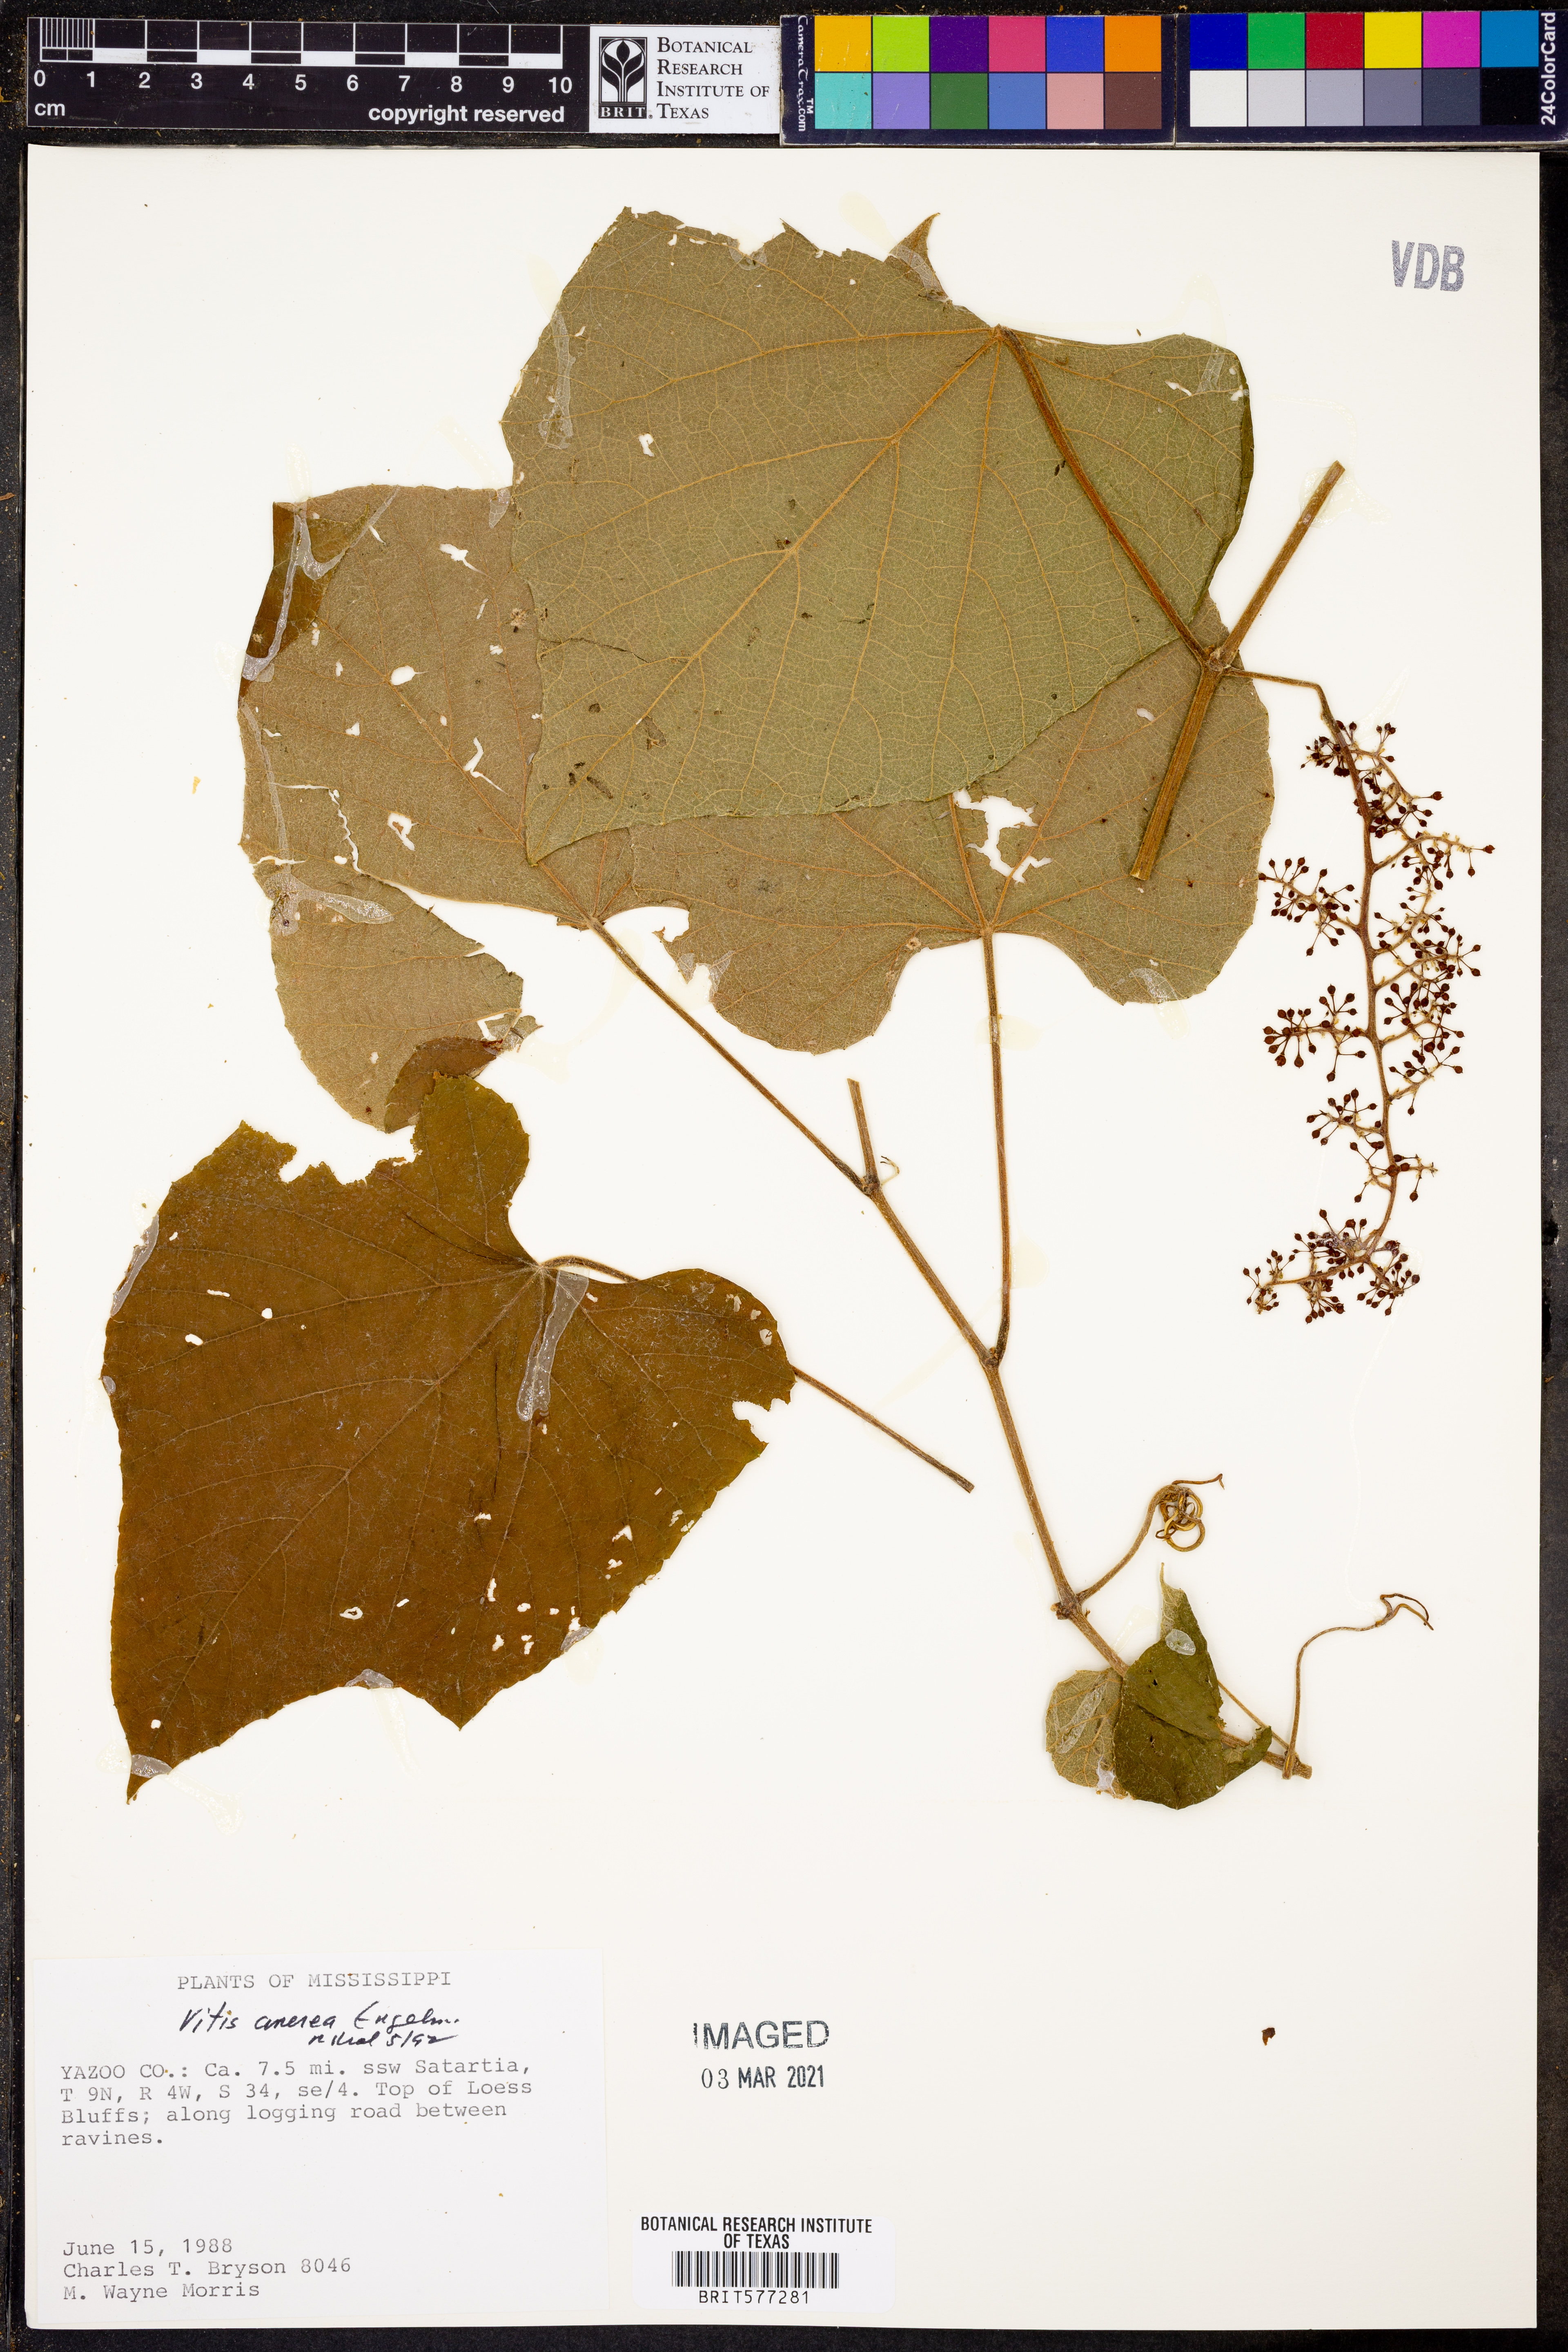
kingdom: Plantae
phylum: Tracheophyta
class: Magnoliopsida
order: Vitales
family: Vitaceae
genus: Vitis
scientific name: Vitis cinerea
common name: Ashy grape
